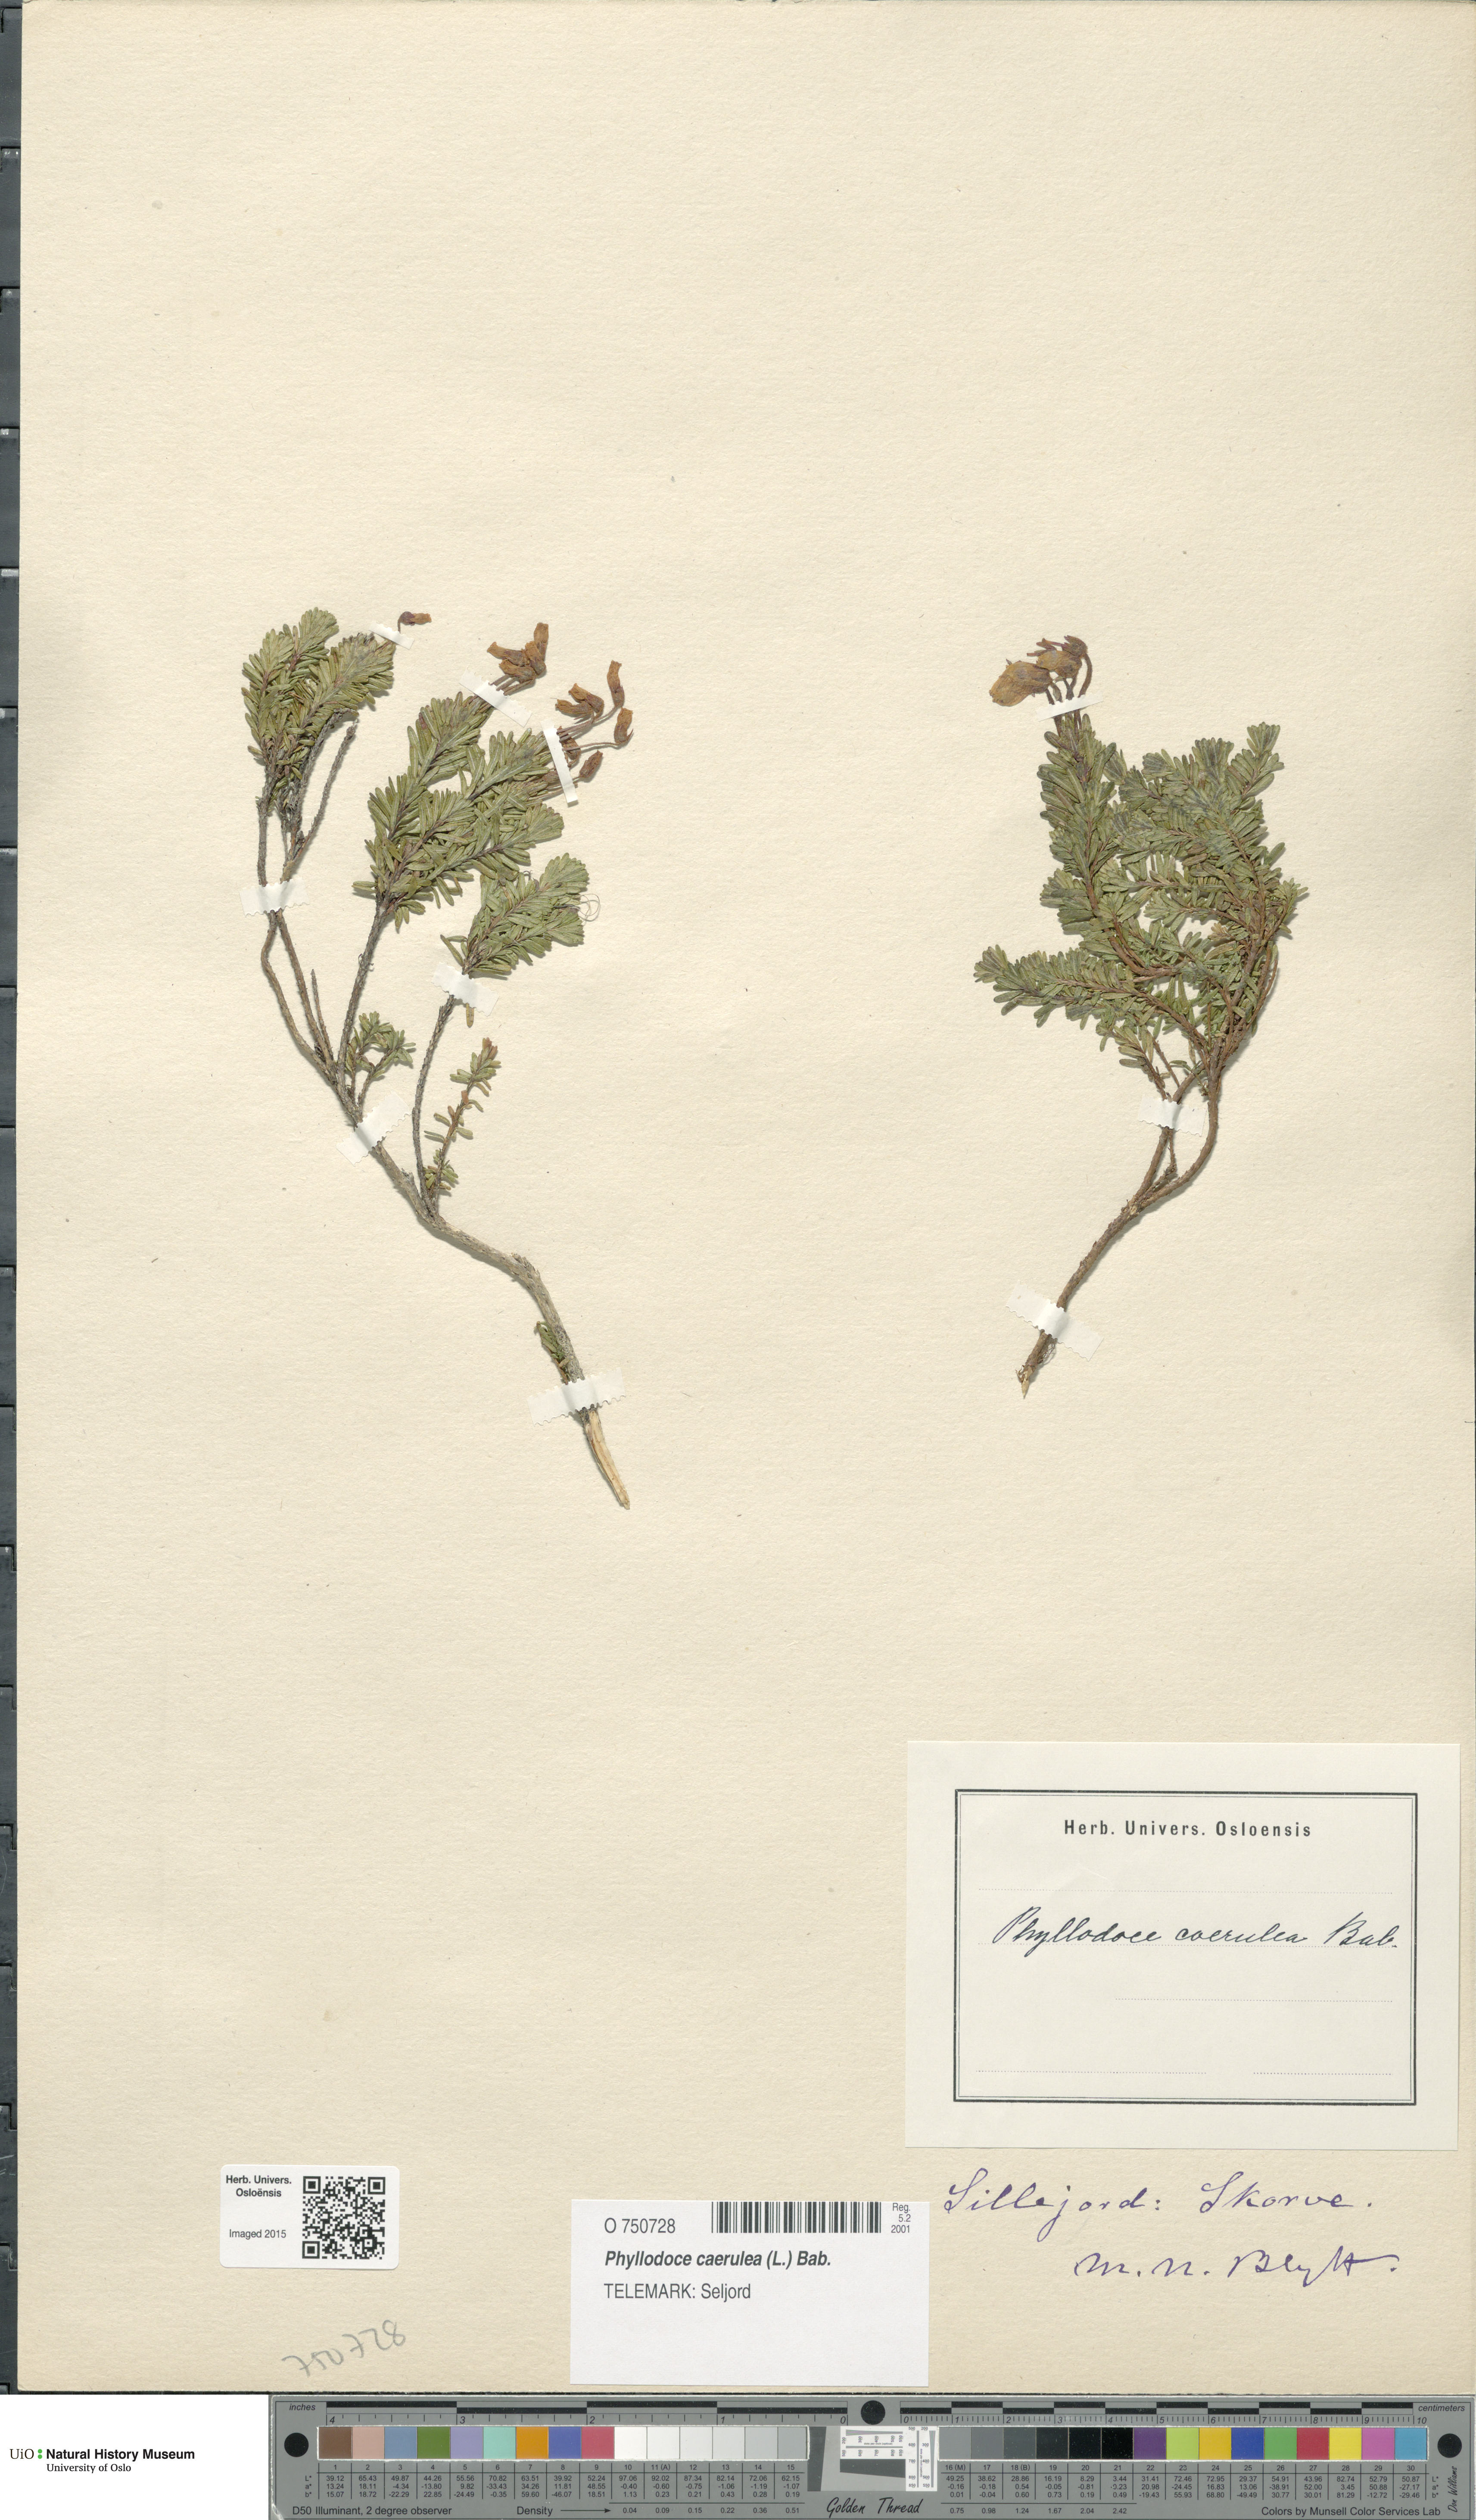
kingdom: Plantae
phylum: Tracheophyta
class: Magnoliopsida
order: Ericales
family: Ericaceae
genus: Phyllodoce
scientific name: Phyllodoce caerulea
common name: Blue heath
